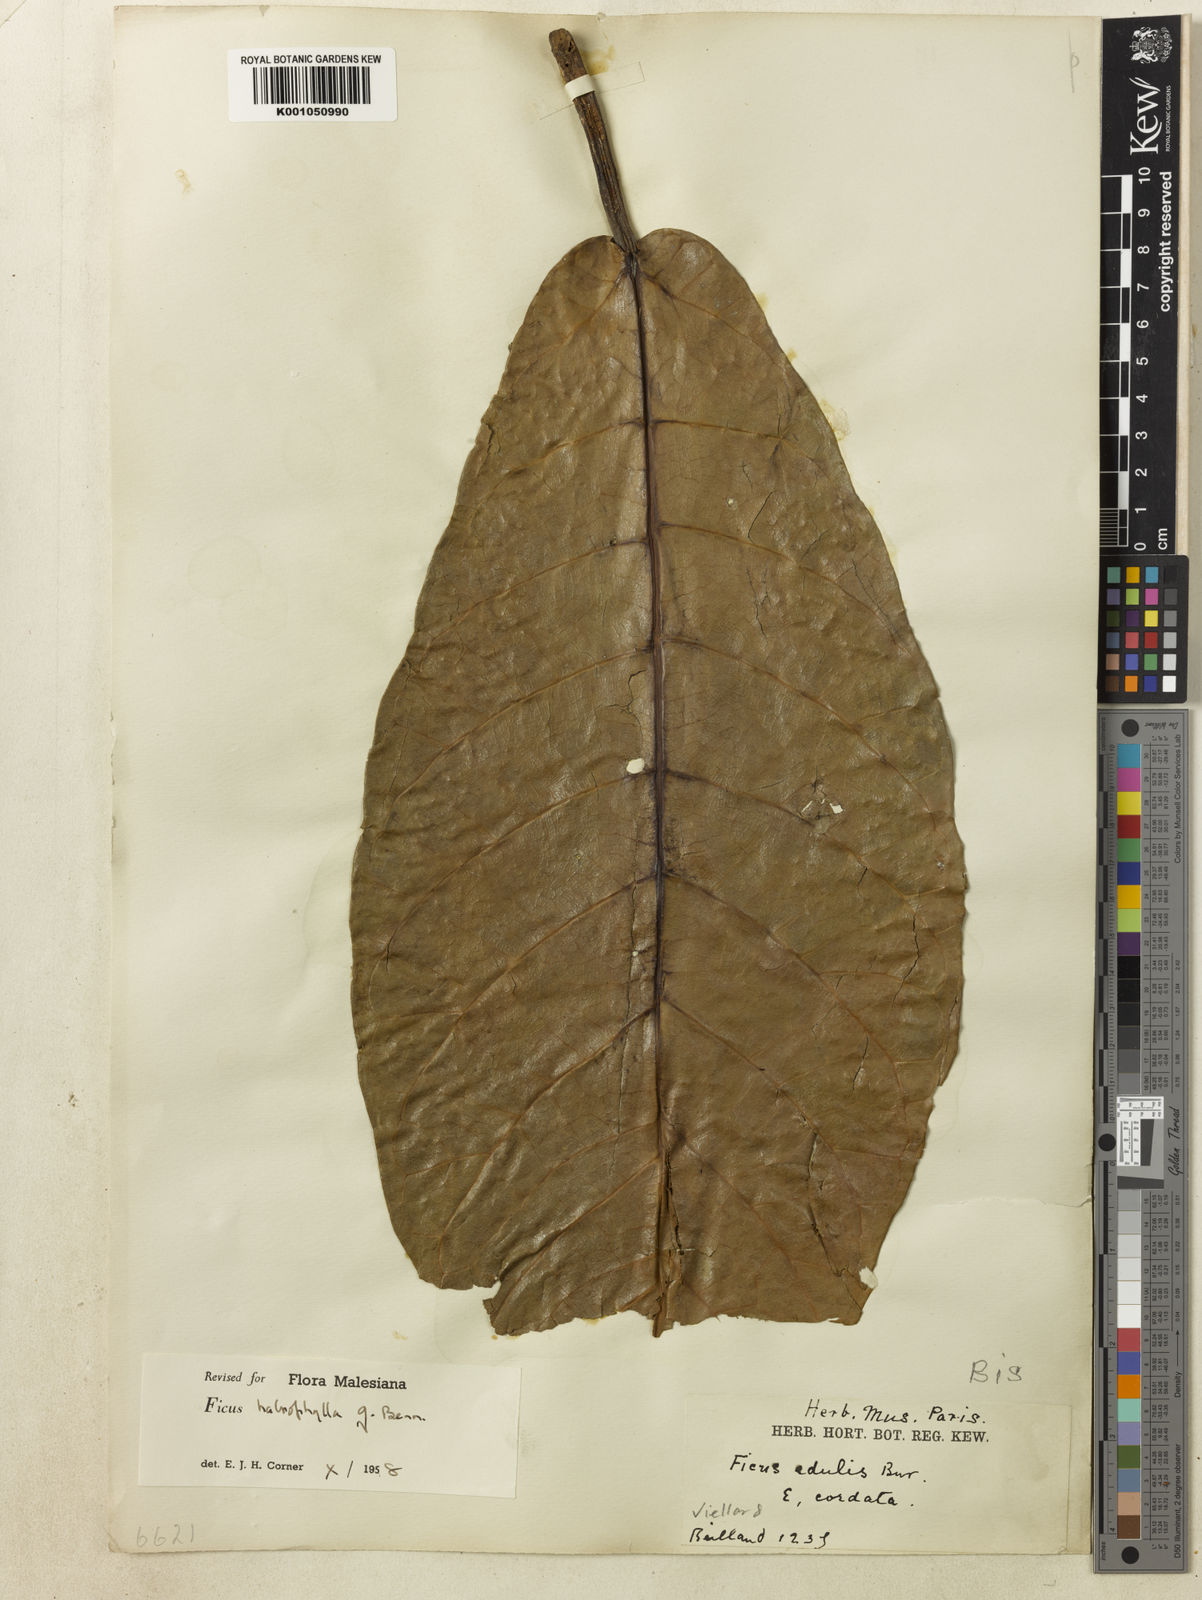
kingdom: Plantae
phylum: Tracheophyta
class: Magnoliopsida
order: Rosales
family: Moraceae
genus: Ficus
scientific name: Ficus
